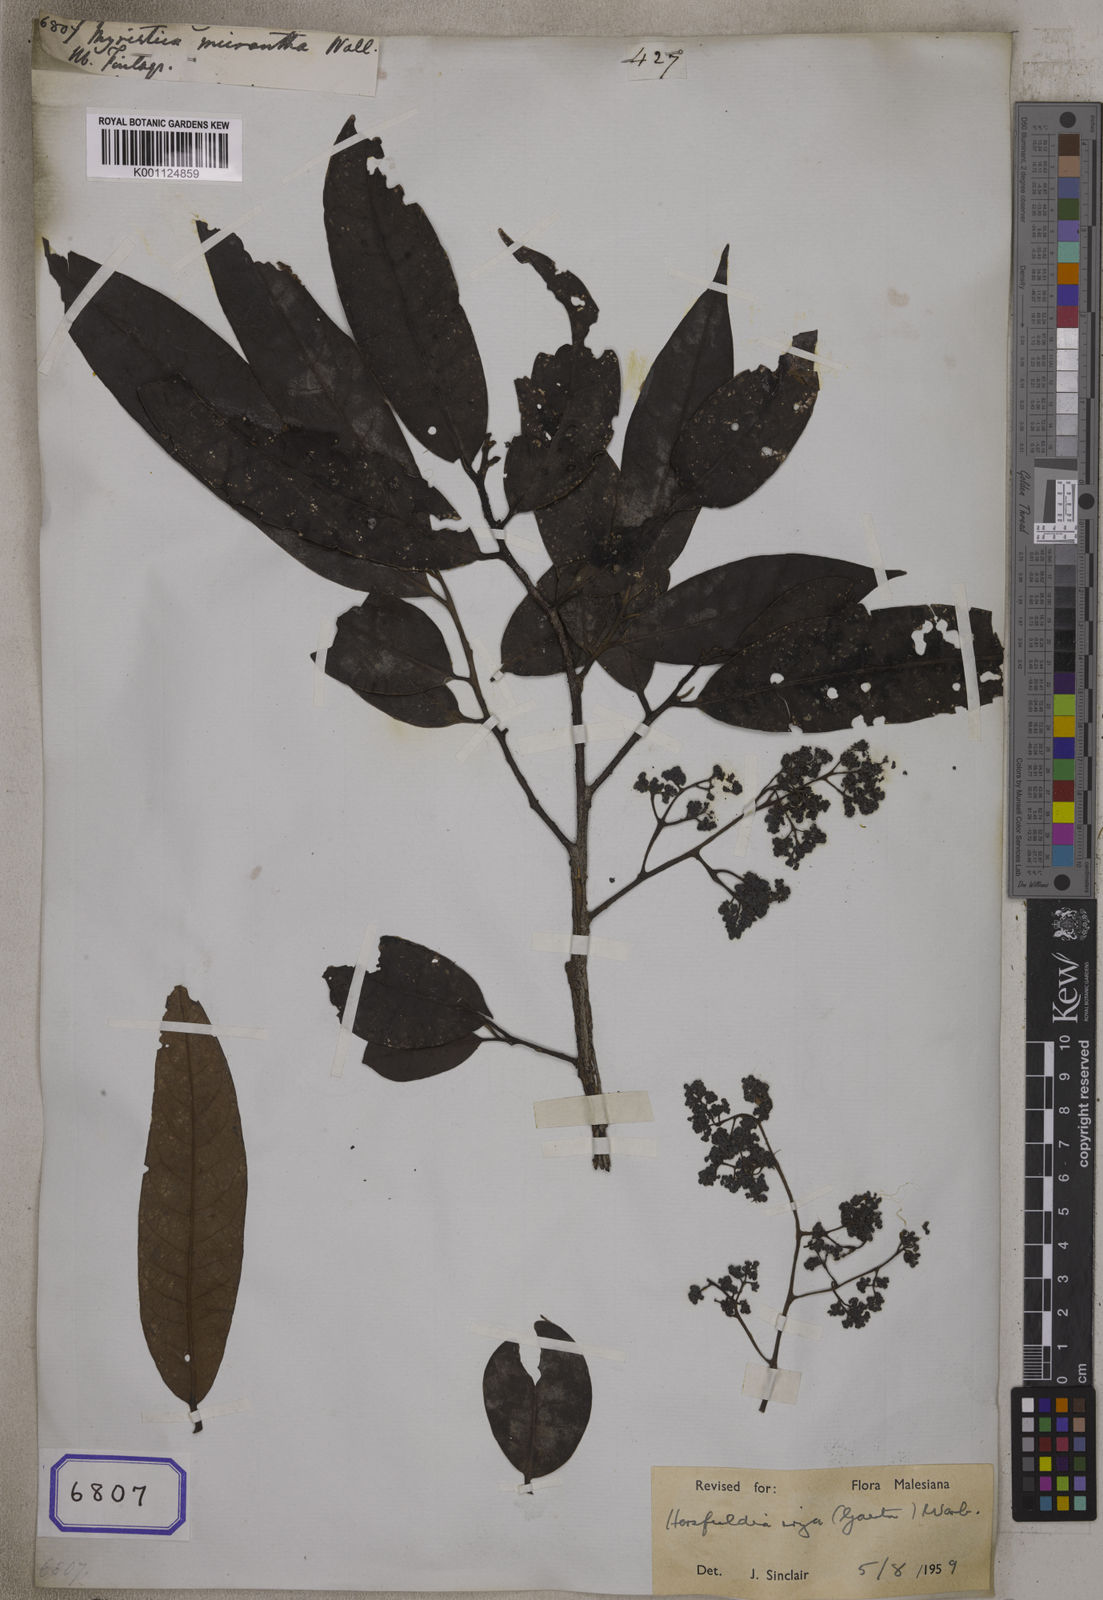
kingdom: Plantae
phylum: Tracheophyta
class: Magnoliopsida
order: Magnoliales
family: Myristicaceae
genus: Horsfieldia
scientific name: Horsfieldia irya
